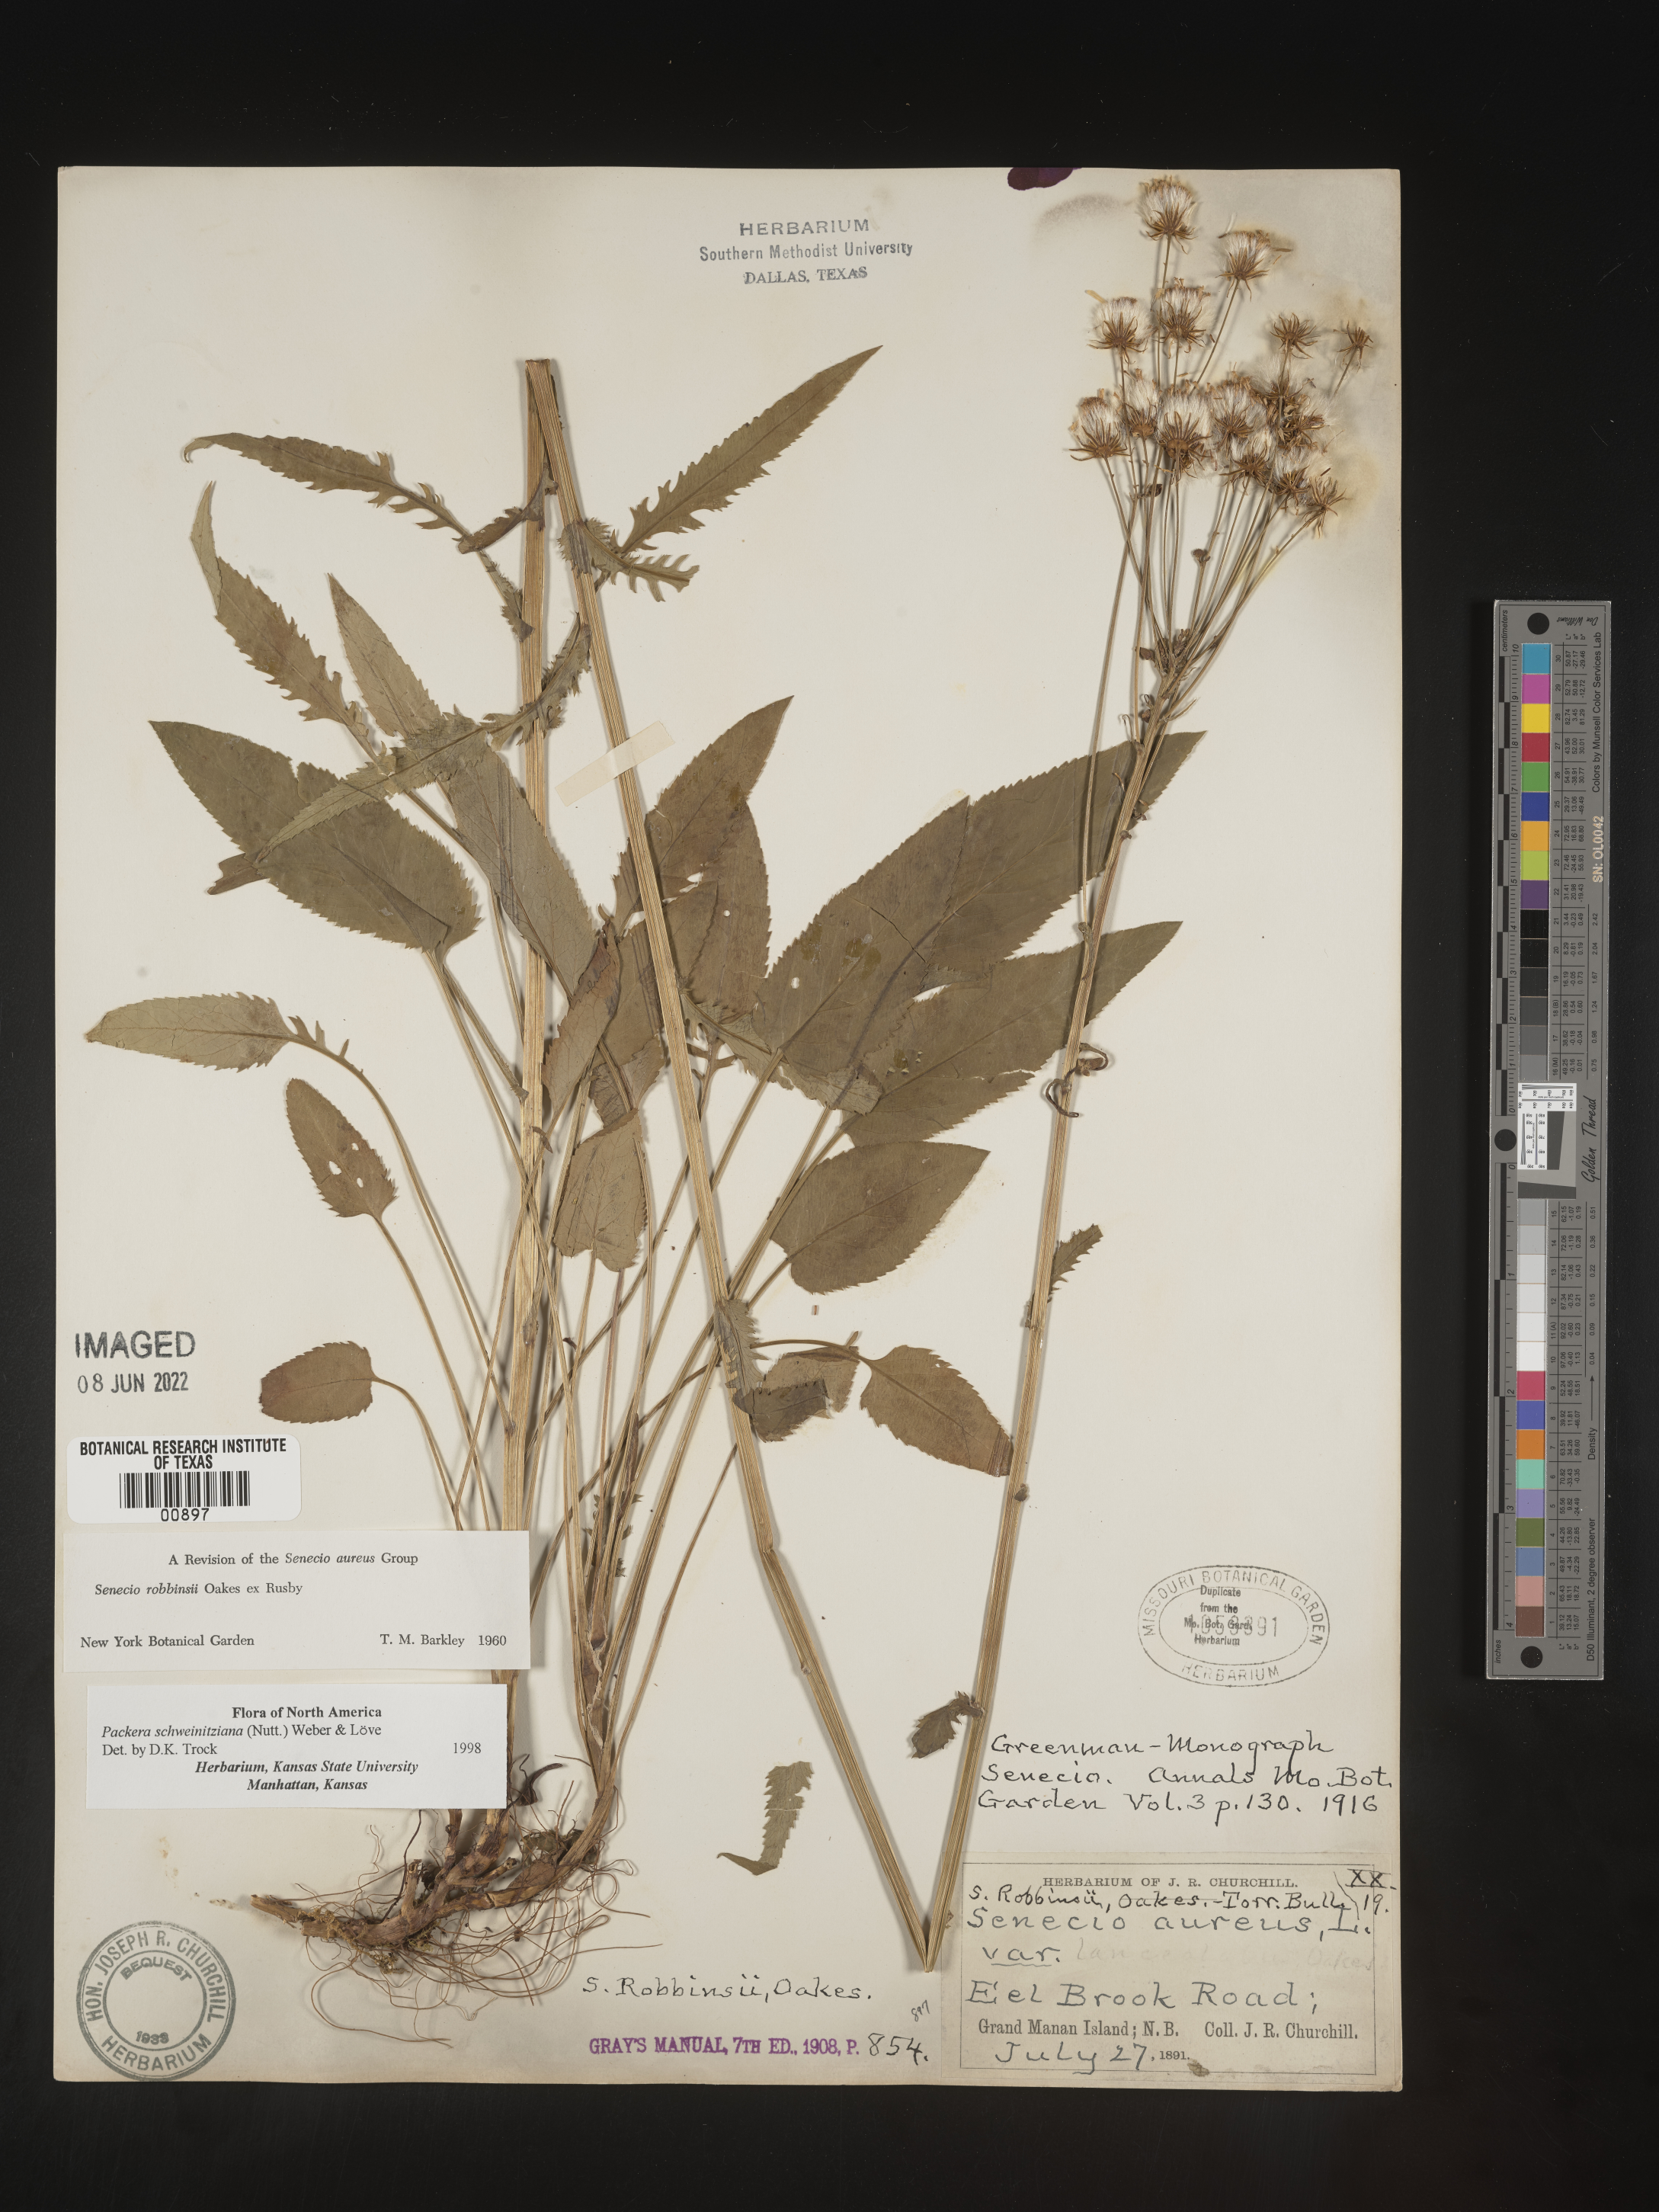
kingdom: Plantae
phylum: Tracheophyta
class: Magnoliopsida
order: Asterales
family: Asteraceae
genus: Packera
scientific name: Packera schweinitziana
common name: Schweinitz's ragwort
